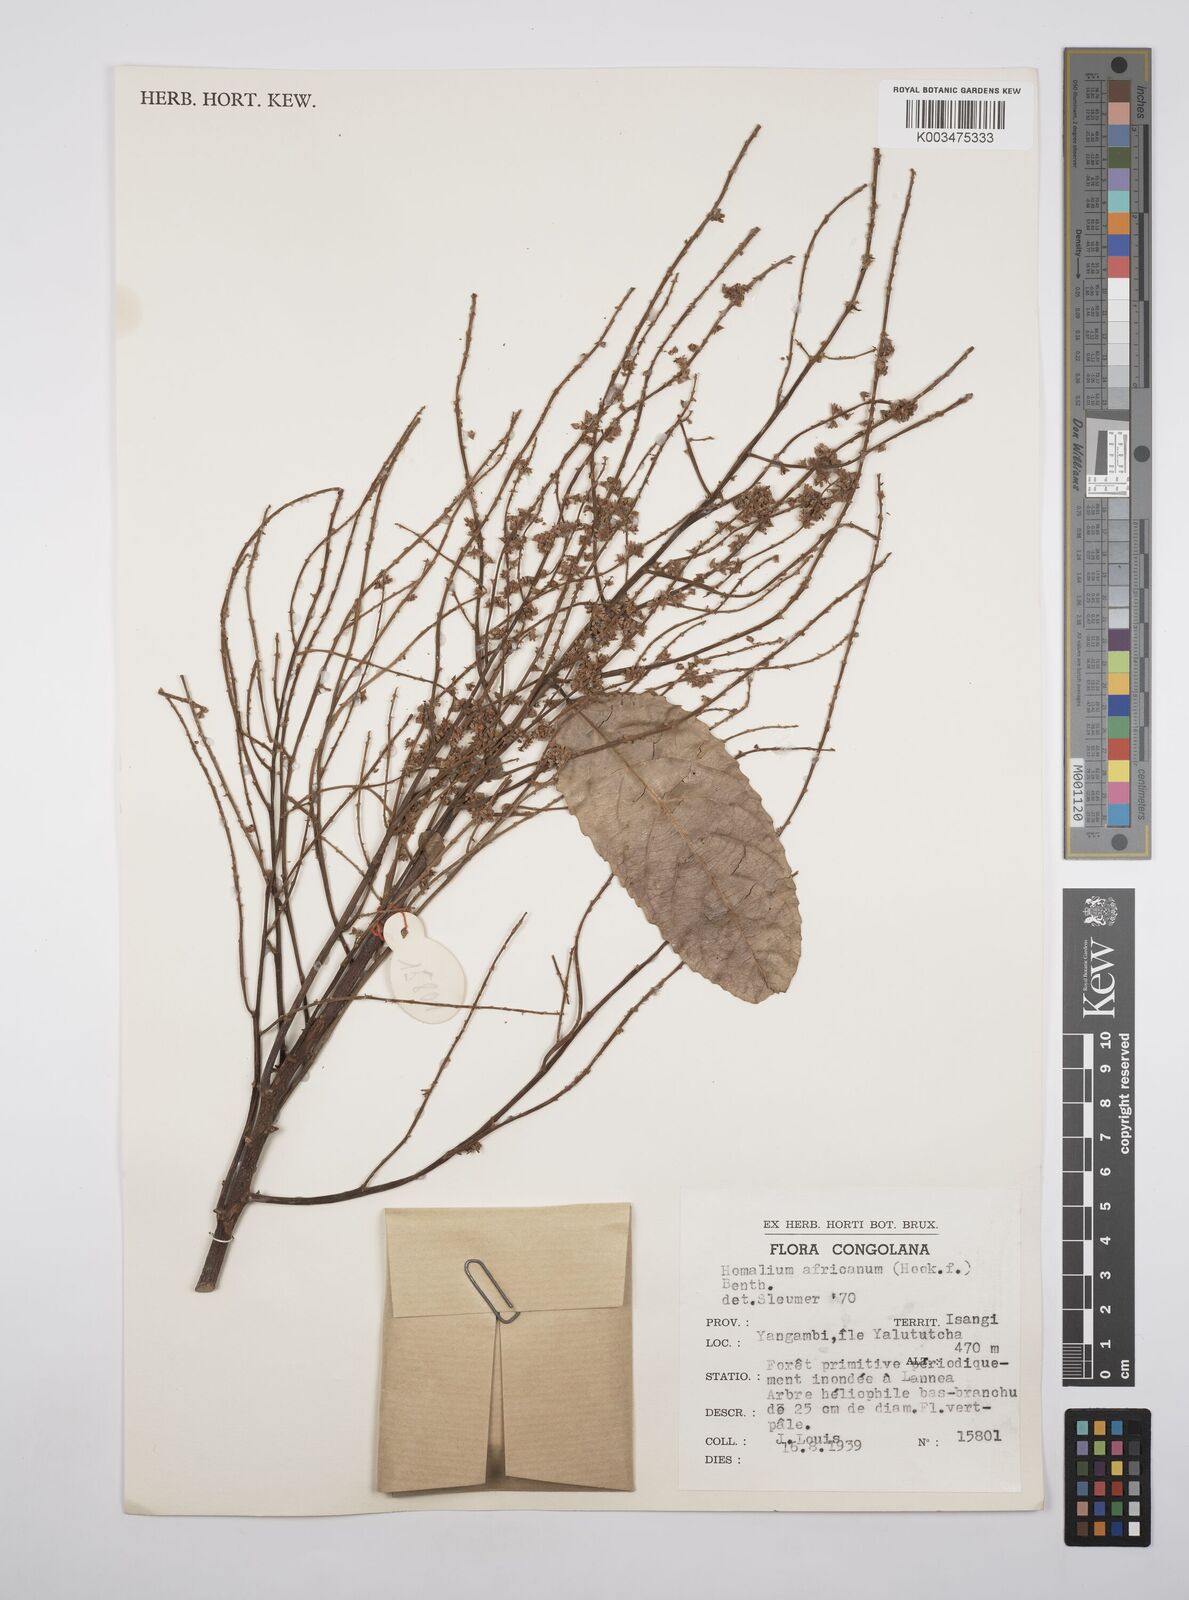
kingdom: Plantae
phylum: Tracheophyta
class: Magnoliopsida
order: Malpighiales
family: Salicaceae
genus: Homalium
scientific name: Homalium africanum
